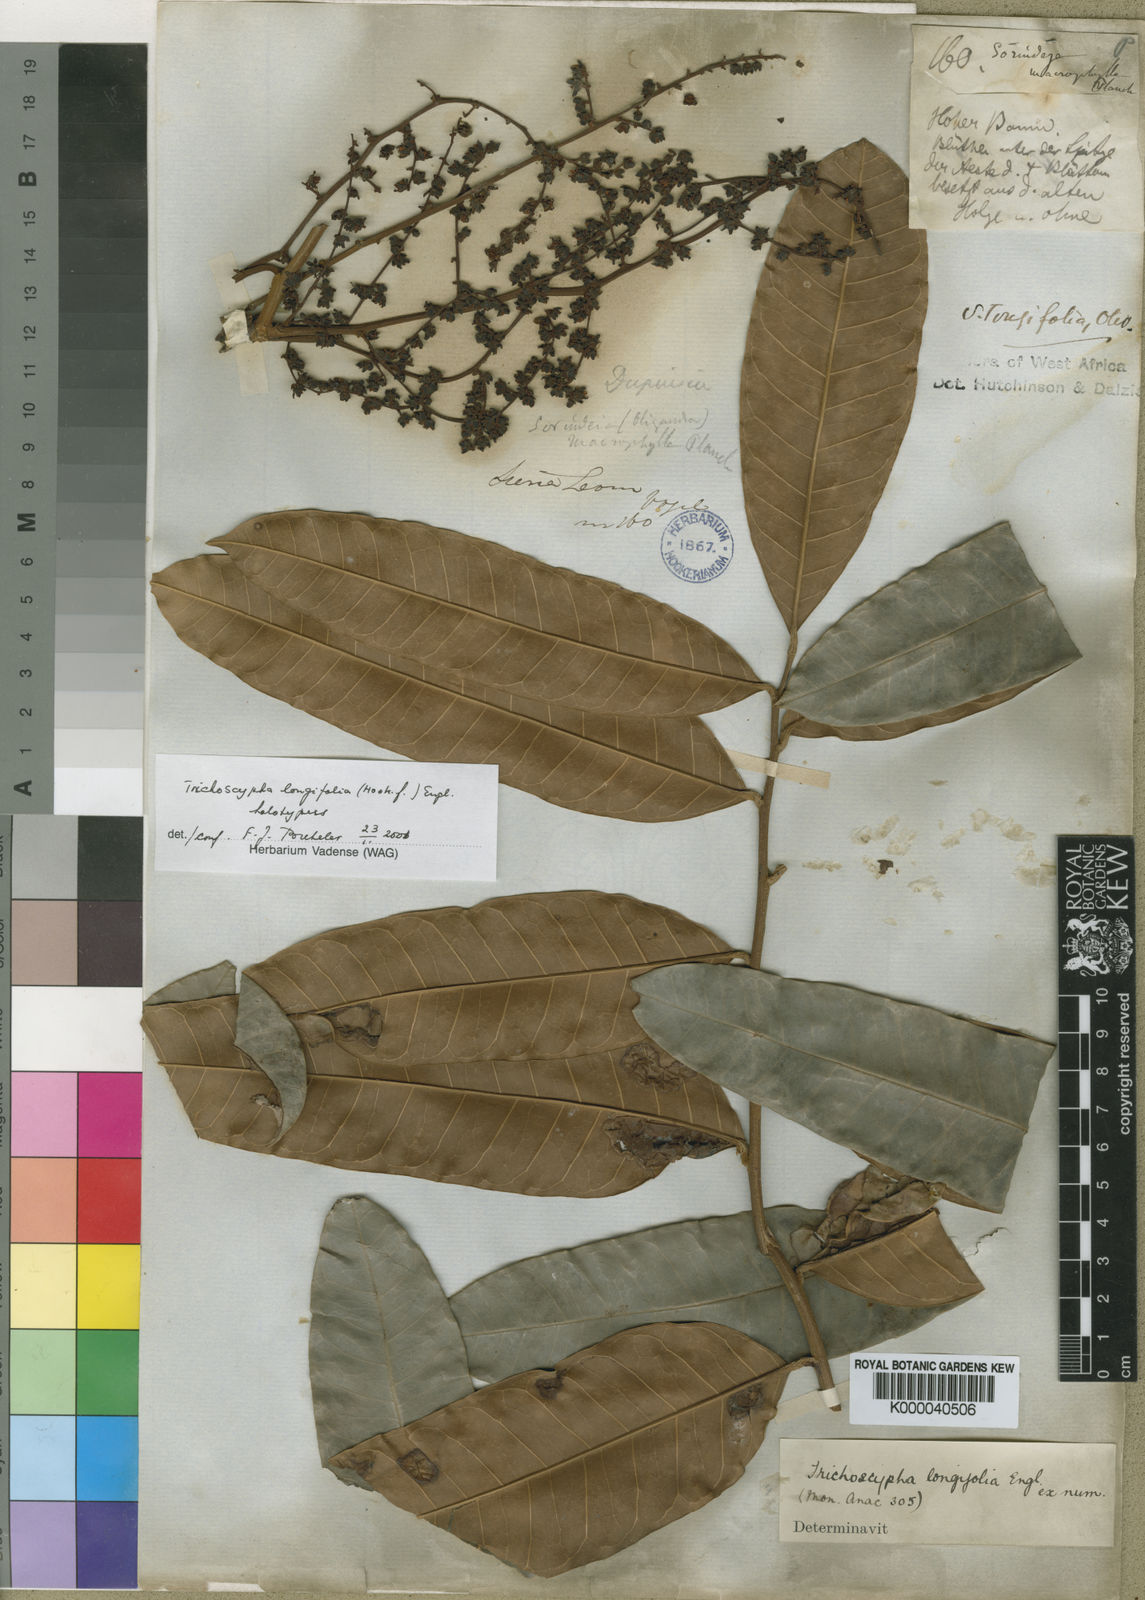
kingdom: Plantae
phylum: Tracheophyta
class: Magnoliopsida
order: Sapindales
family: Anacardiaceae
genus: Trichoscypha
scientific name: Trichoscypha longifolia
